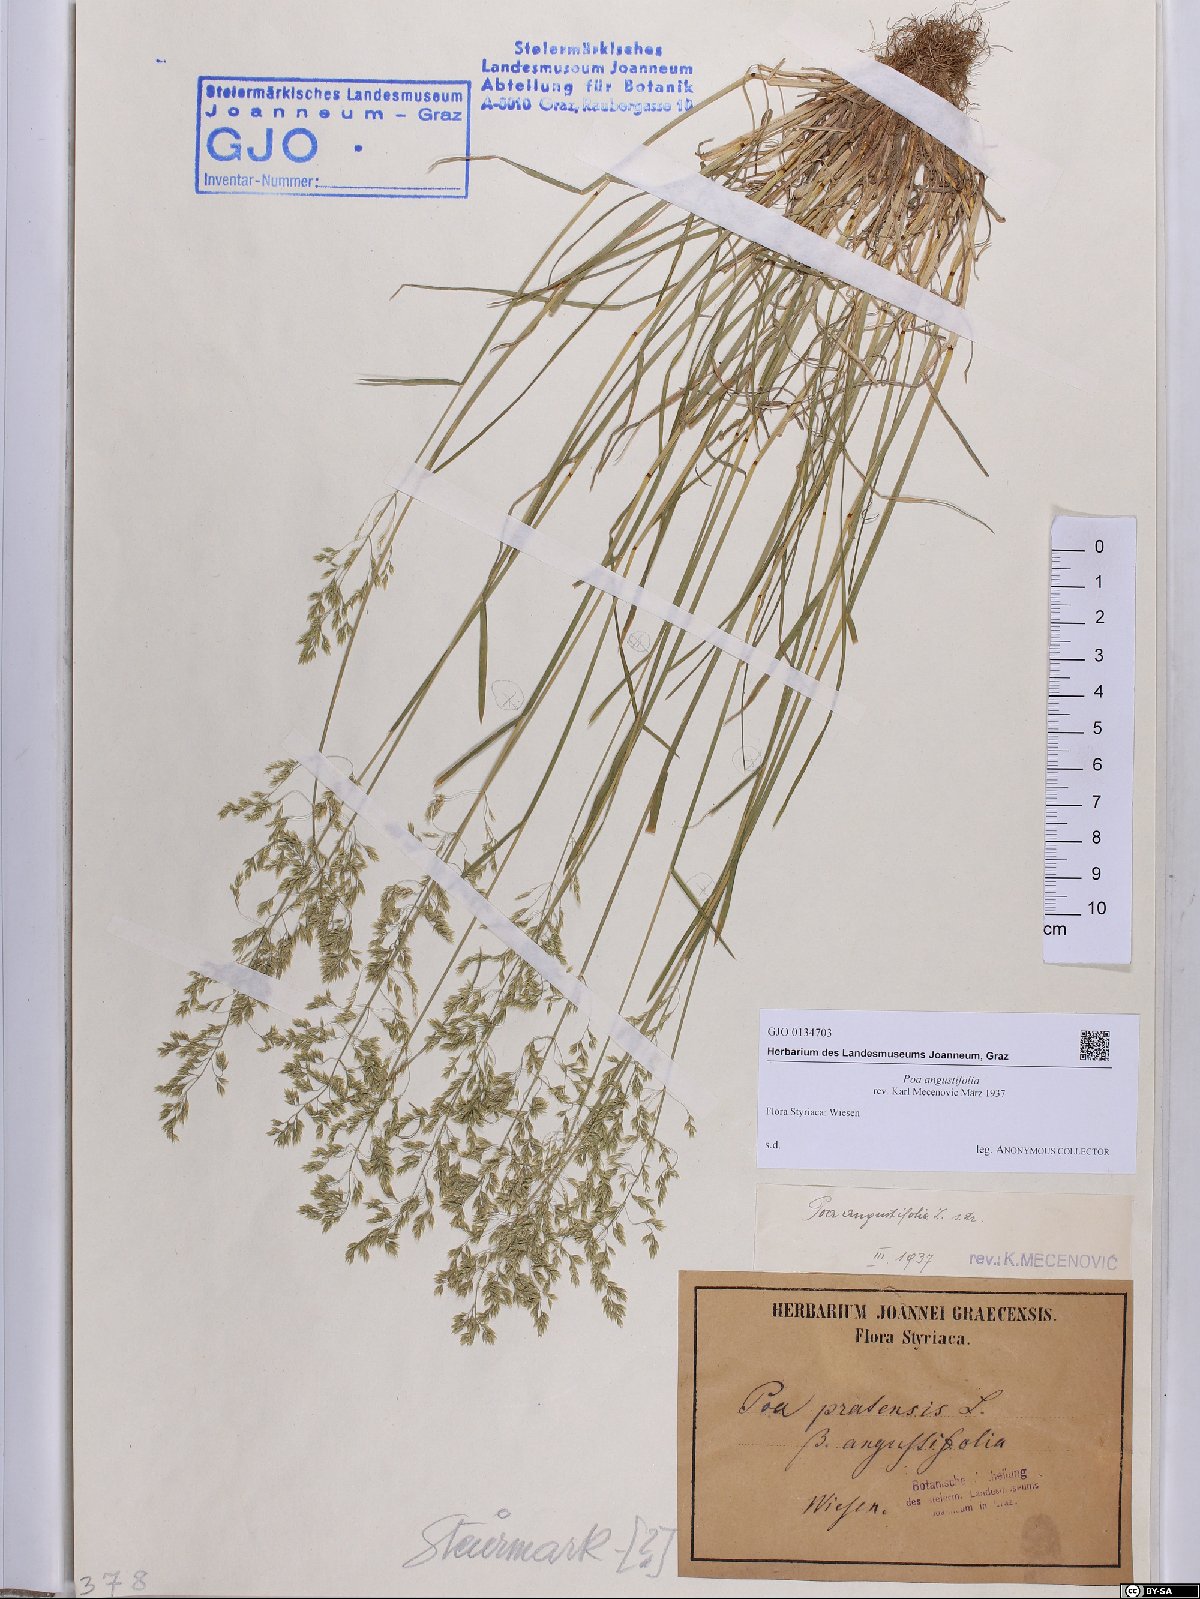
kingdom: Plantae
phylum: Tracheophyta
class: Liliopsida
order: Poales
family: Poaceae
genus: Poa
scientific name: Poa angustifolia
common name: Narrow-leaved meadow-grass
